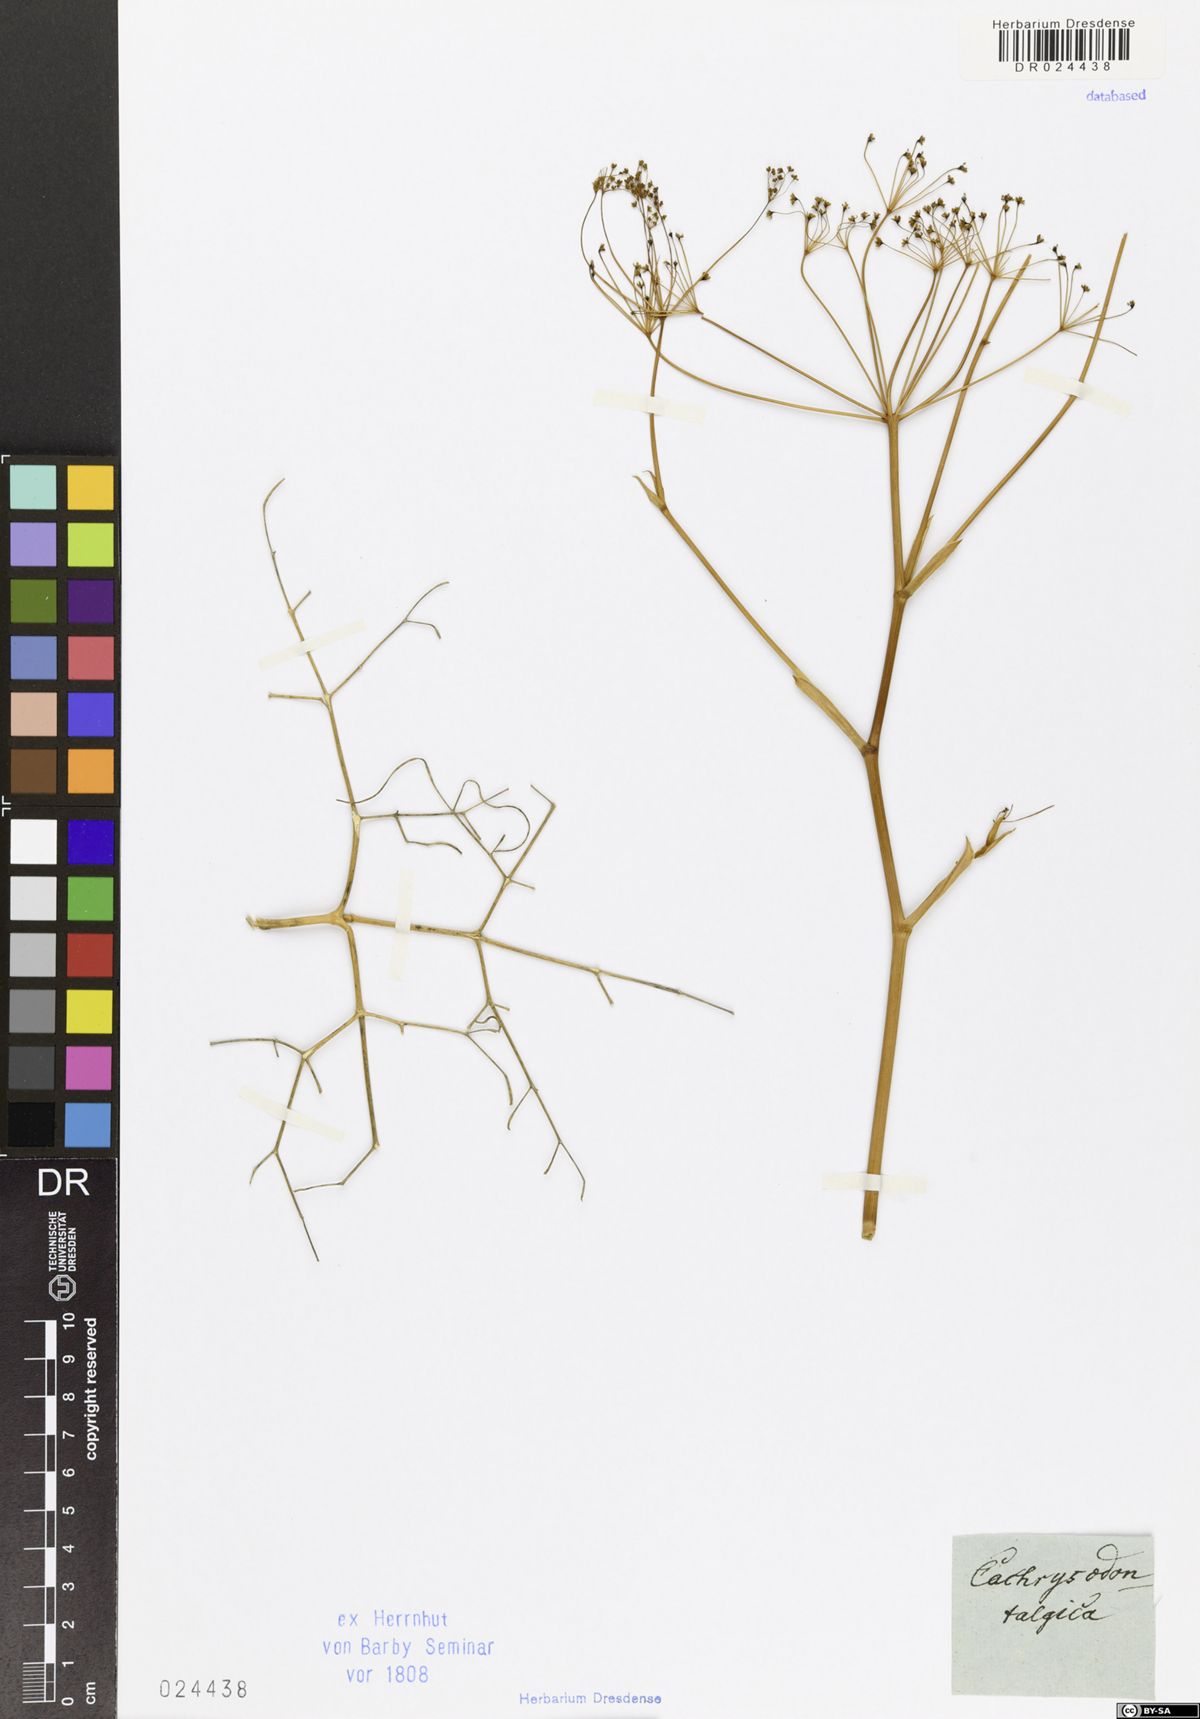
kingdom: Plantae
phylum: Tracheophyta
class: Magnoliopsida
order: Apiales
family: Apiaceae
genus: Eriosynaphe
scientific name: Eriosynaphe longifolia
